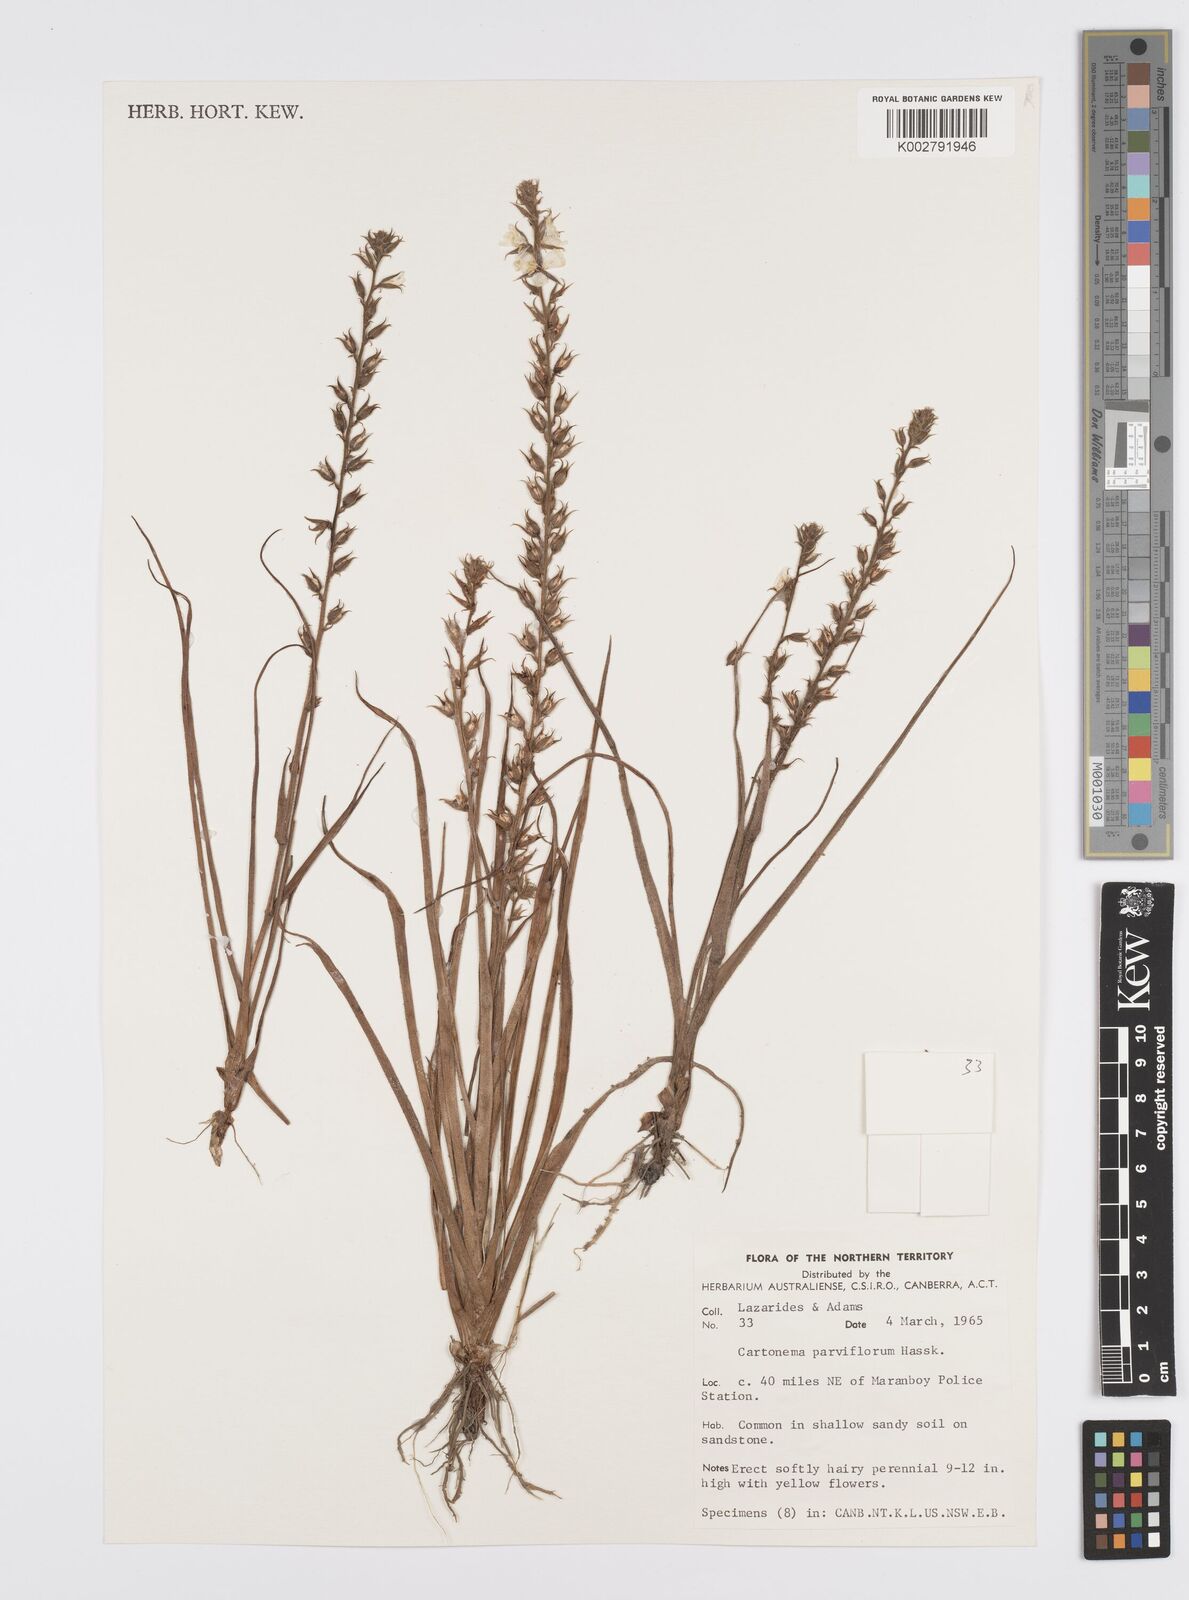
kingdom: Plantae
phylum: Tracheophyta
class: Liliopsida
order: Commelinales
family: Commelinaceae
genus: Cartonema
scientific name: Cartonema parviflorum
